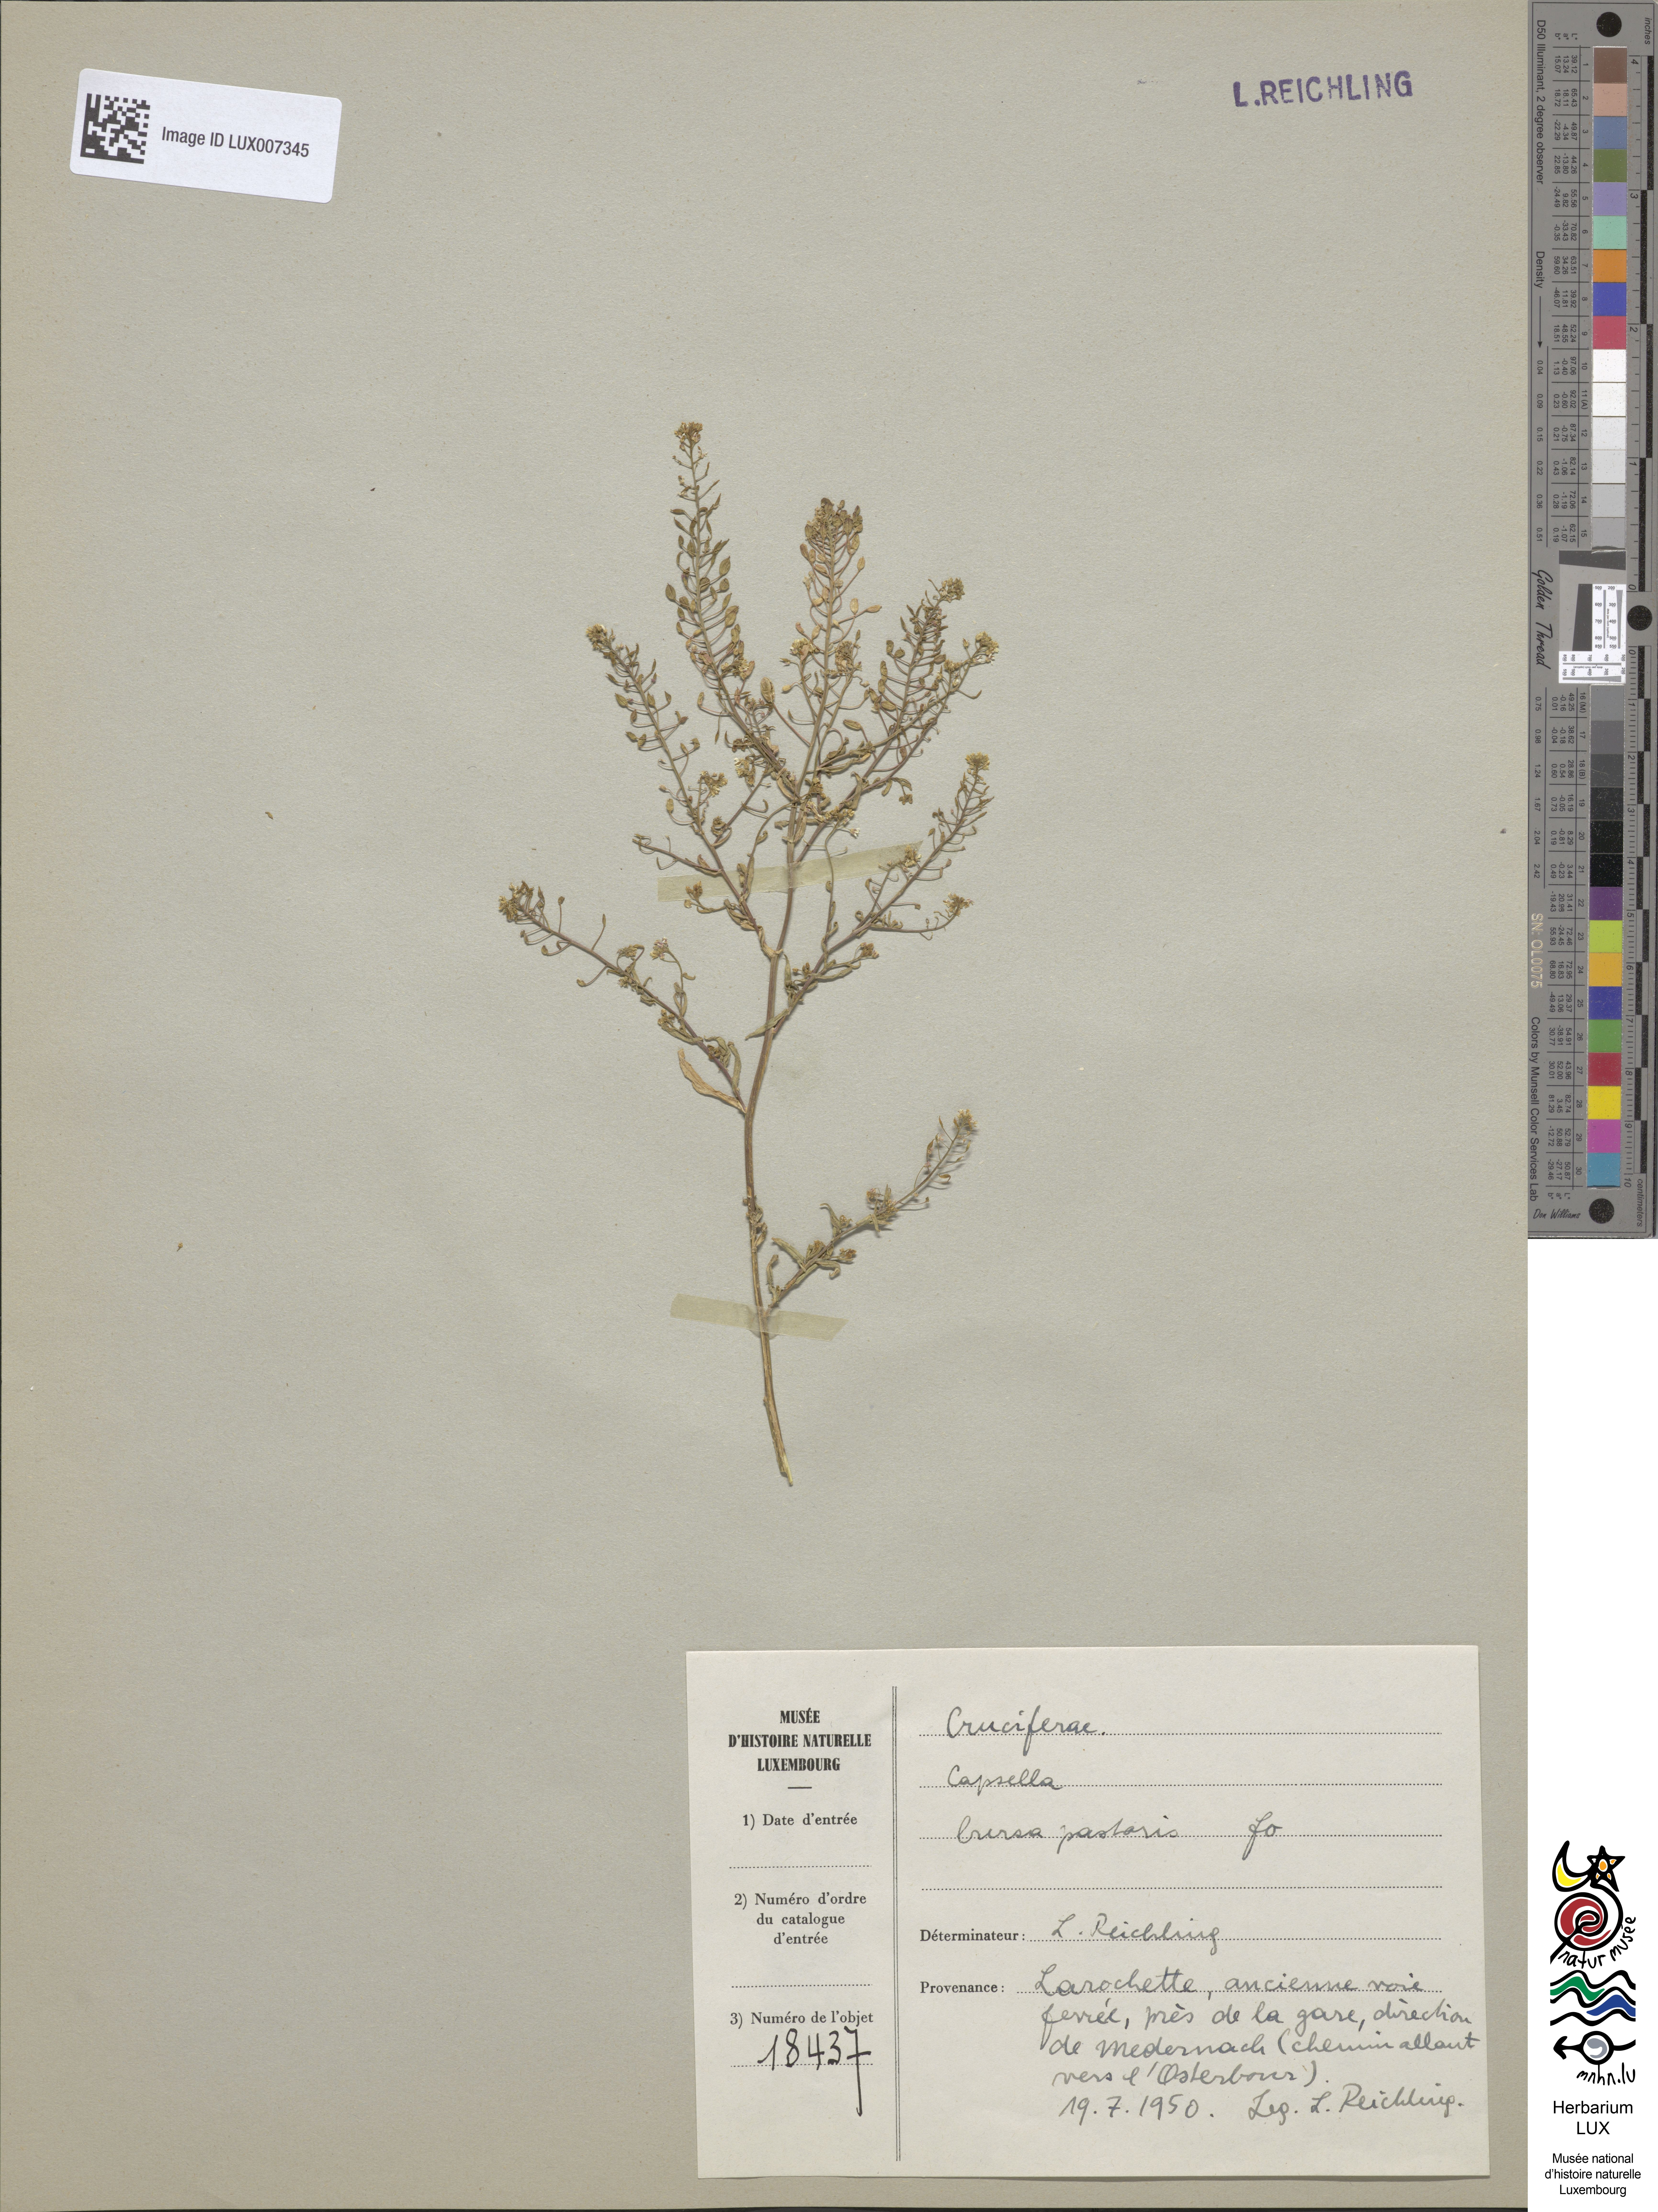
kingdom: Plantae
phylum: Tracheophyta
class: Magnoliopsida
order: Brassicales
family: Brassicaceae
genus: Capsella
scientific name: Capsella bursa-pastoris
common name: Shepherd's purse
